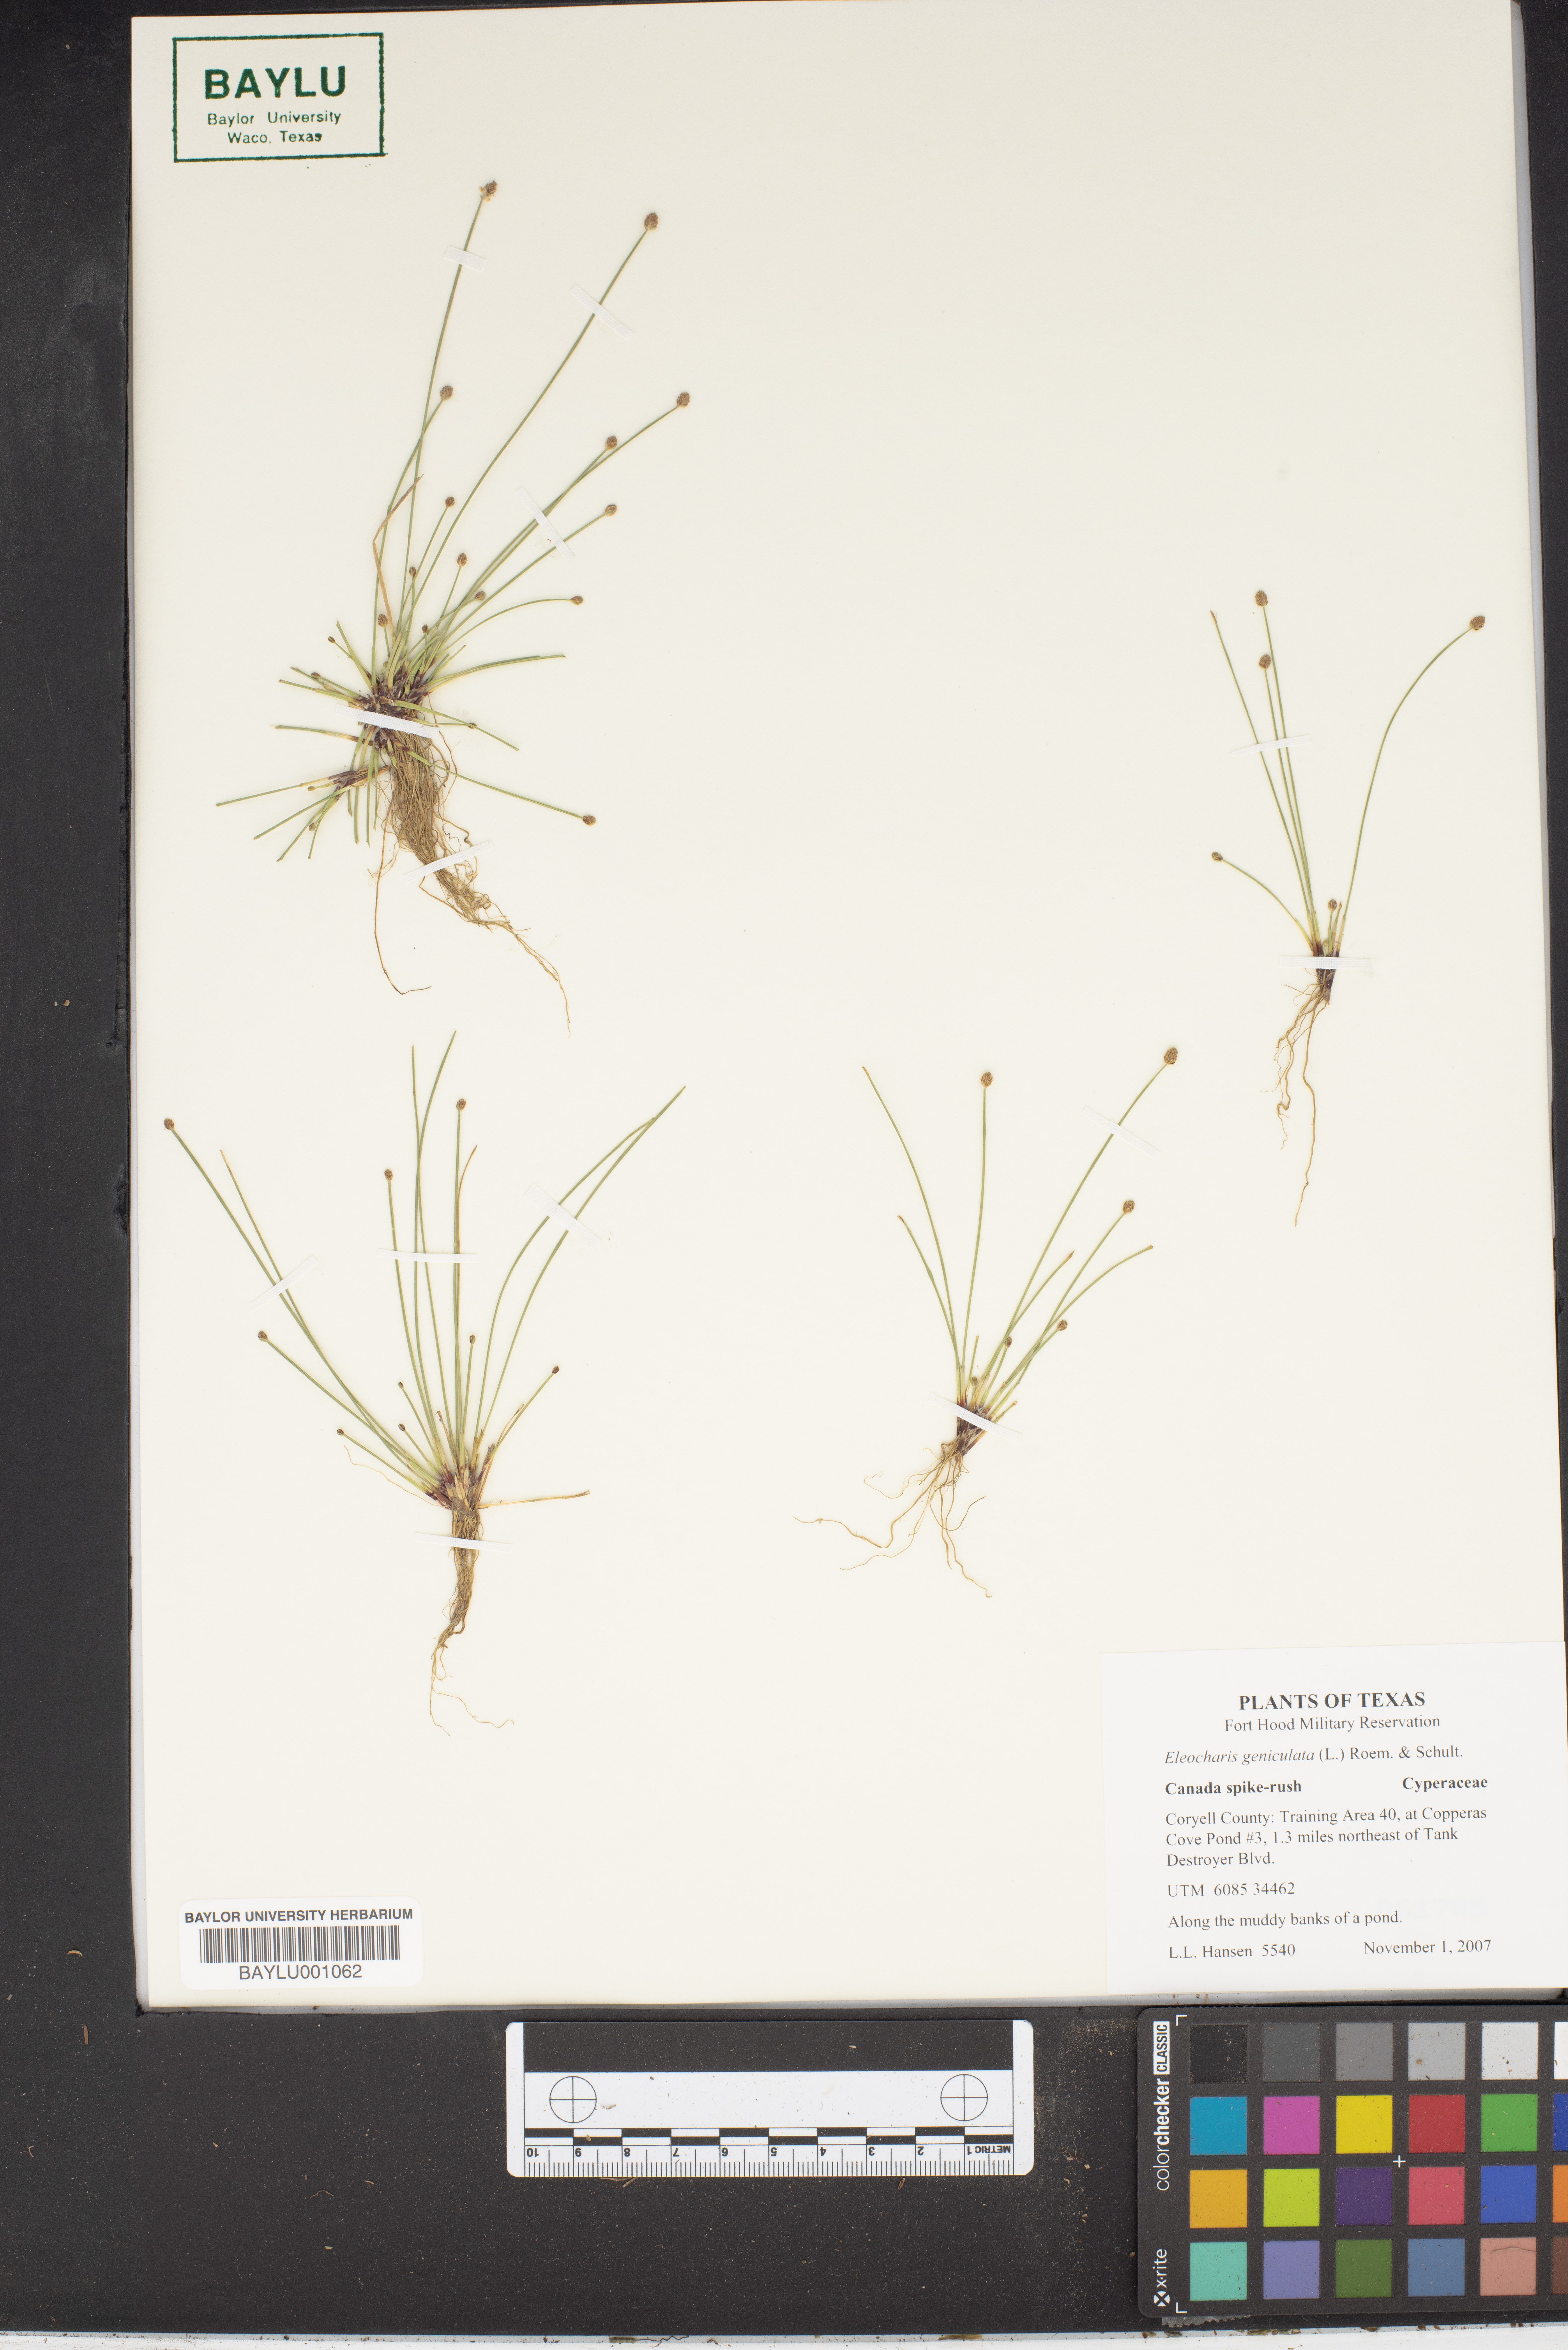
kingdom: Plantae
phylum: Tracheophyta
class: Liliopsida
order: Poales
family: Cyperaceae
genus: Eleocharis
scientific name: Eleocharis geniculata
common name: Canada spikesedge
